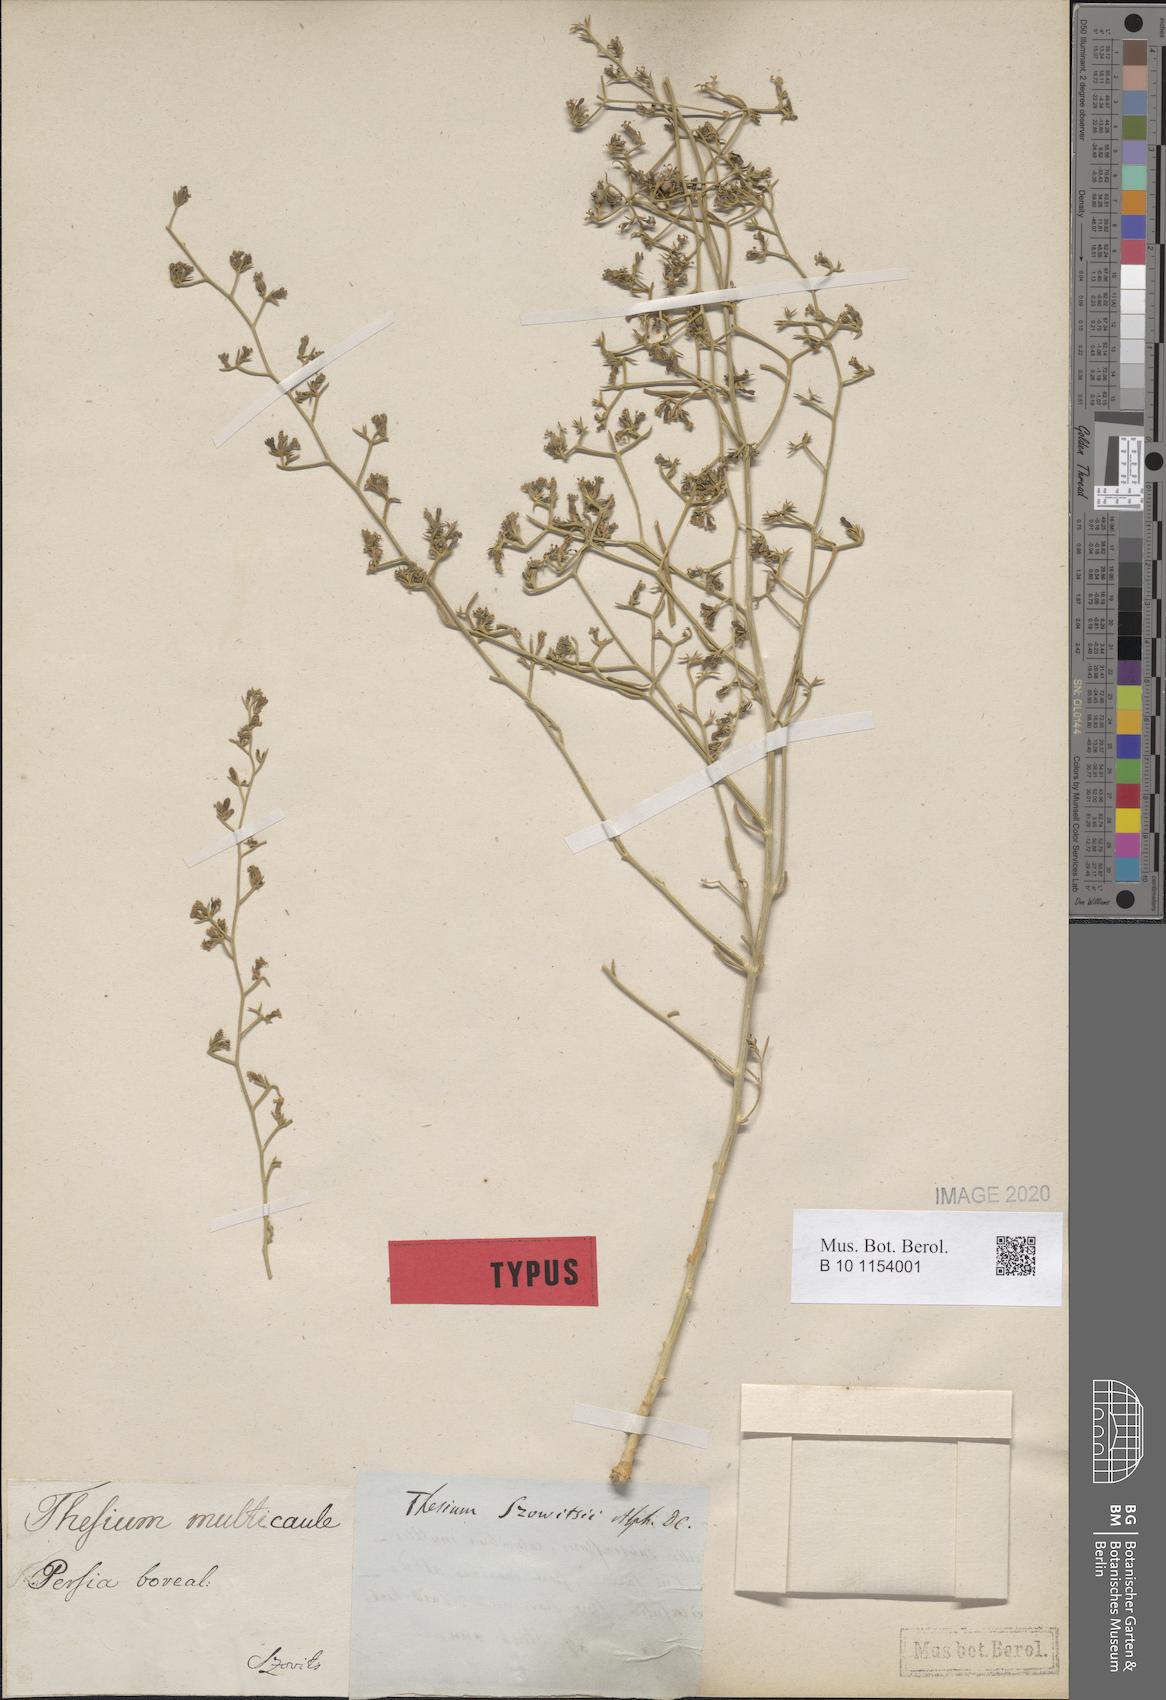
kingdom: Plantae
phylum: Tracheophyta
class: Magnoliopsida
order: Santalales
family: Thesiaceae
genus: Thesium
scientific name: Thesium szowitsii
